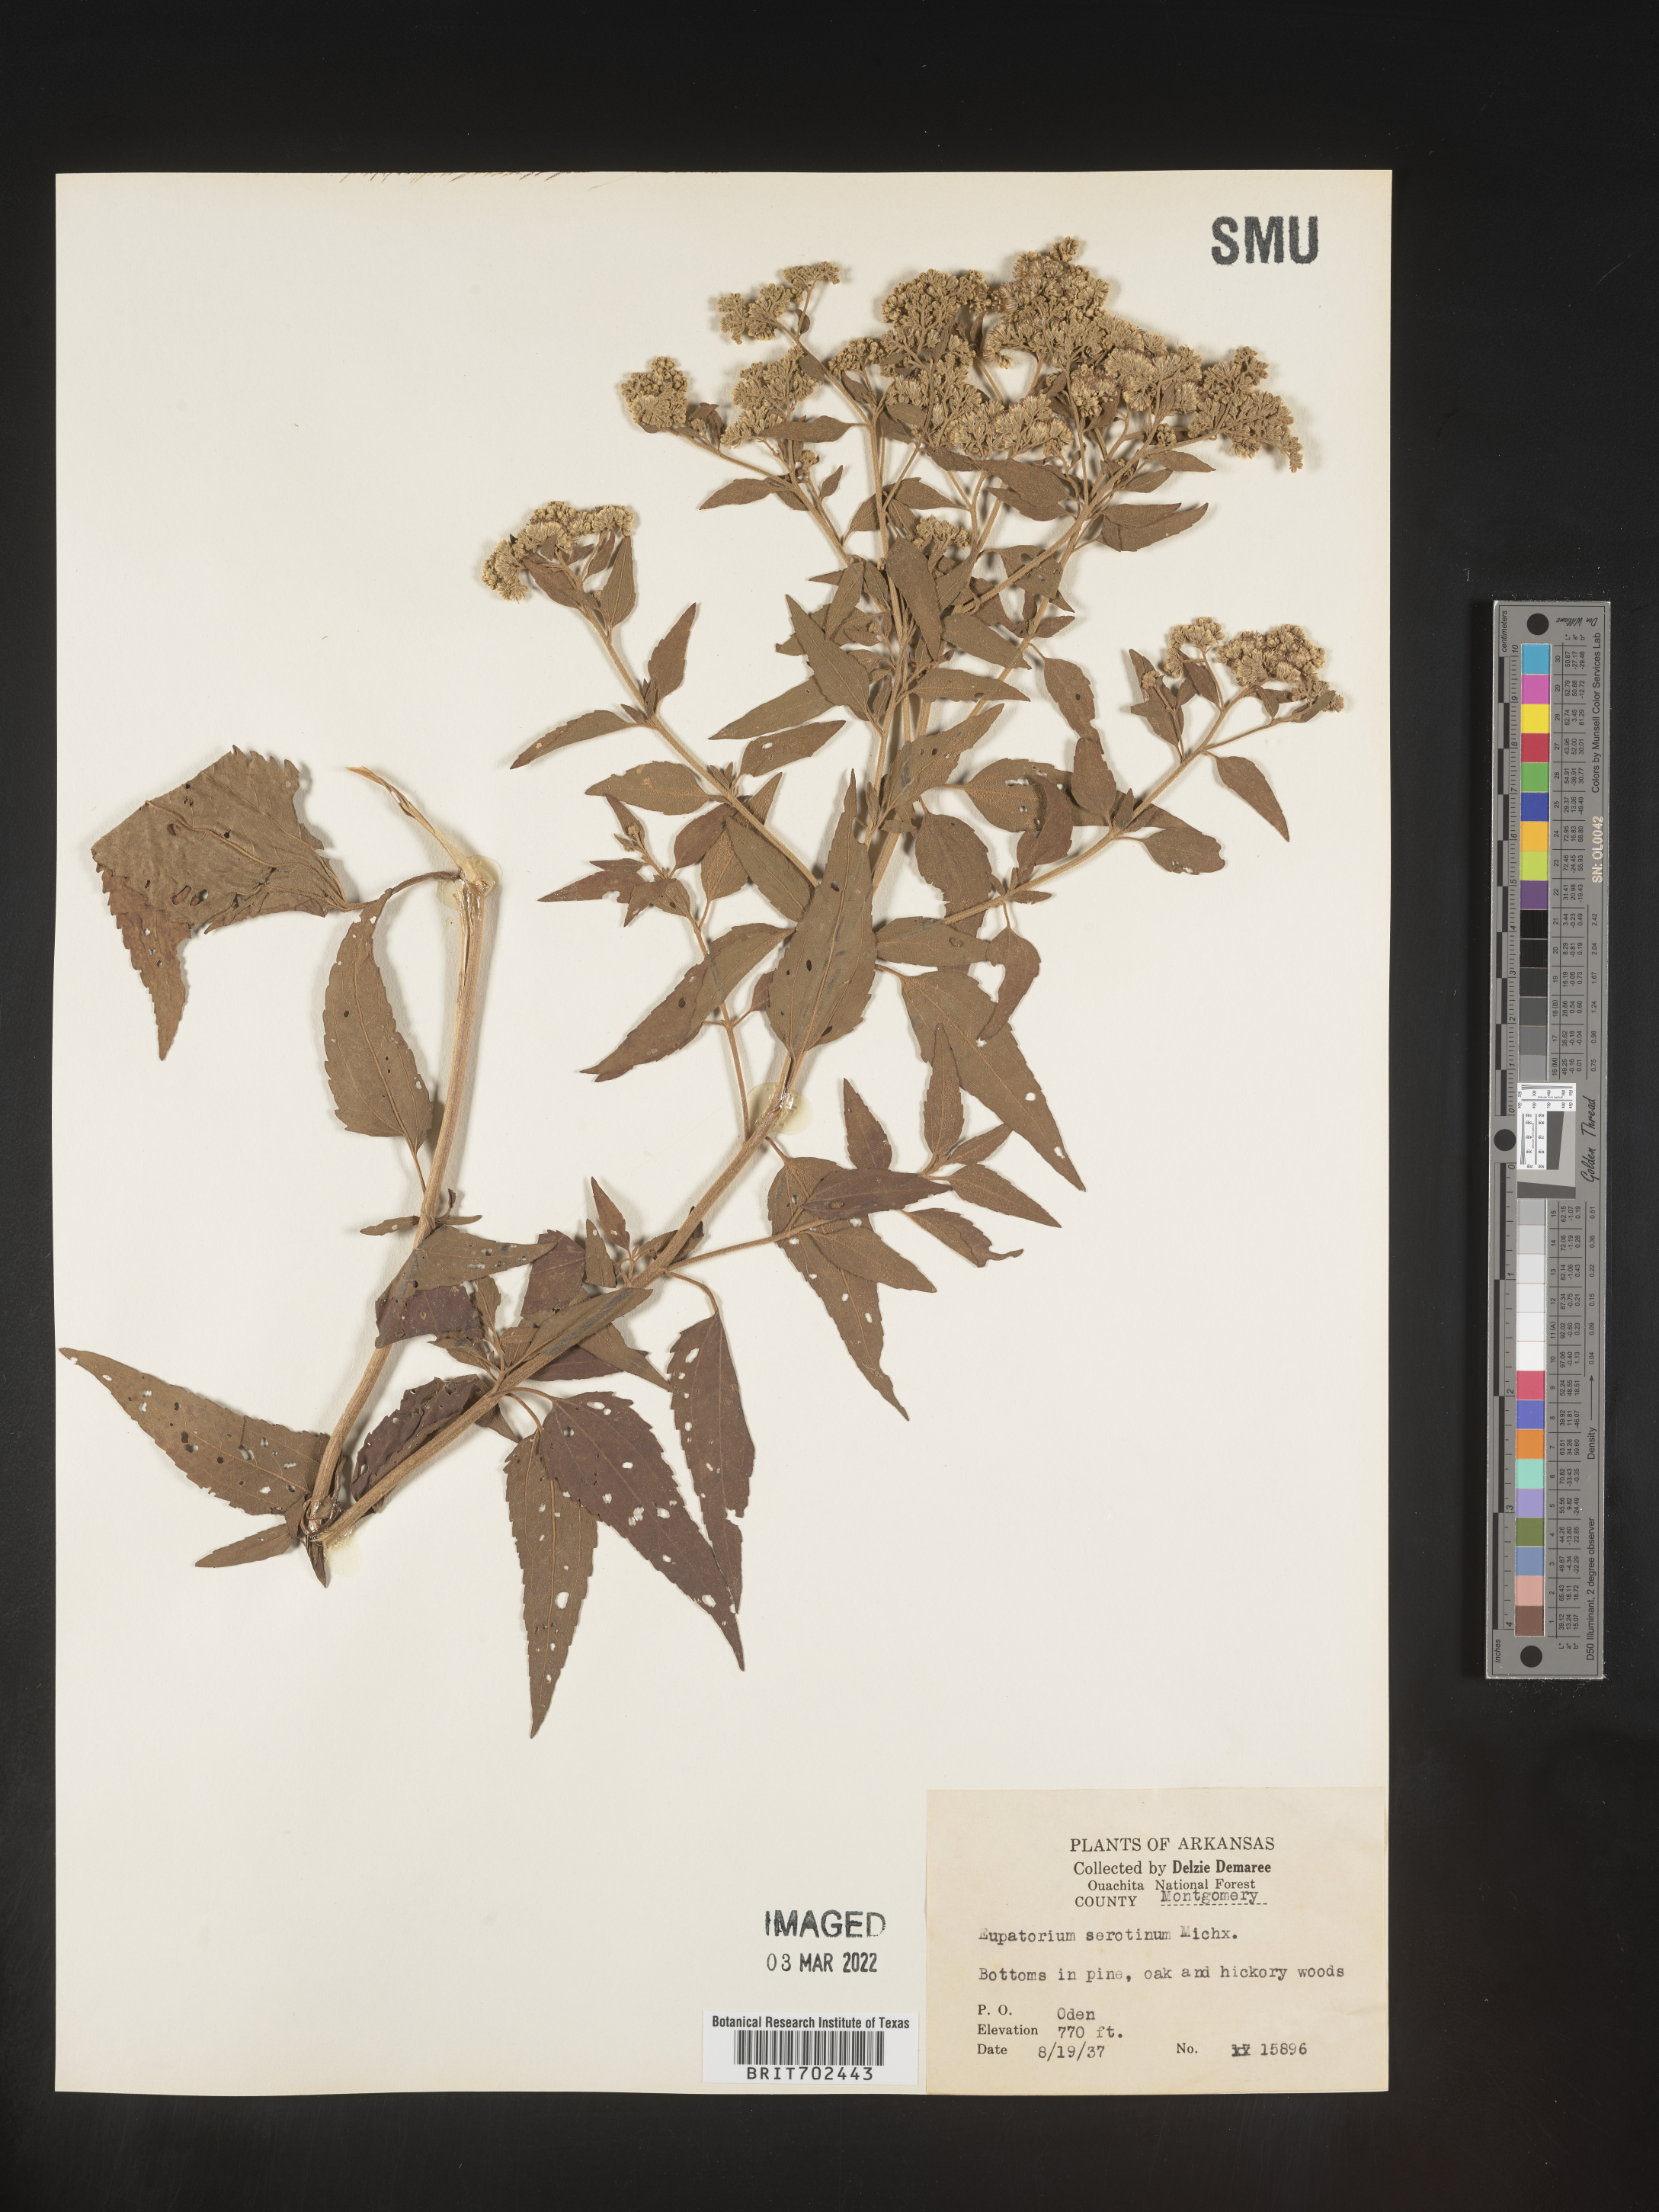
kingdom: Plantae
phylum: Tracheophyta
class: Magnoliopsida
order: Asterales
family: Asteraceae
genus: Eupatorium
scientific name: Eupatorium serotinum
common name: Late boneset
